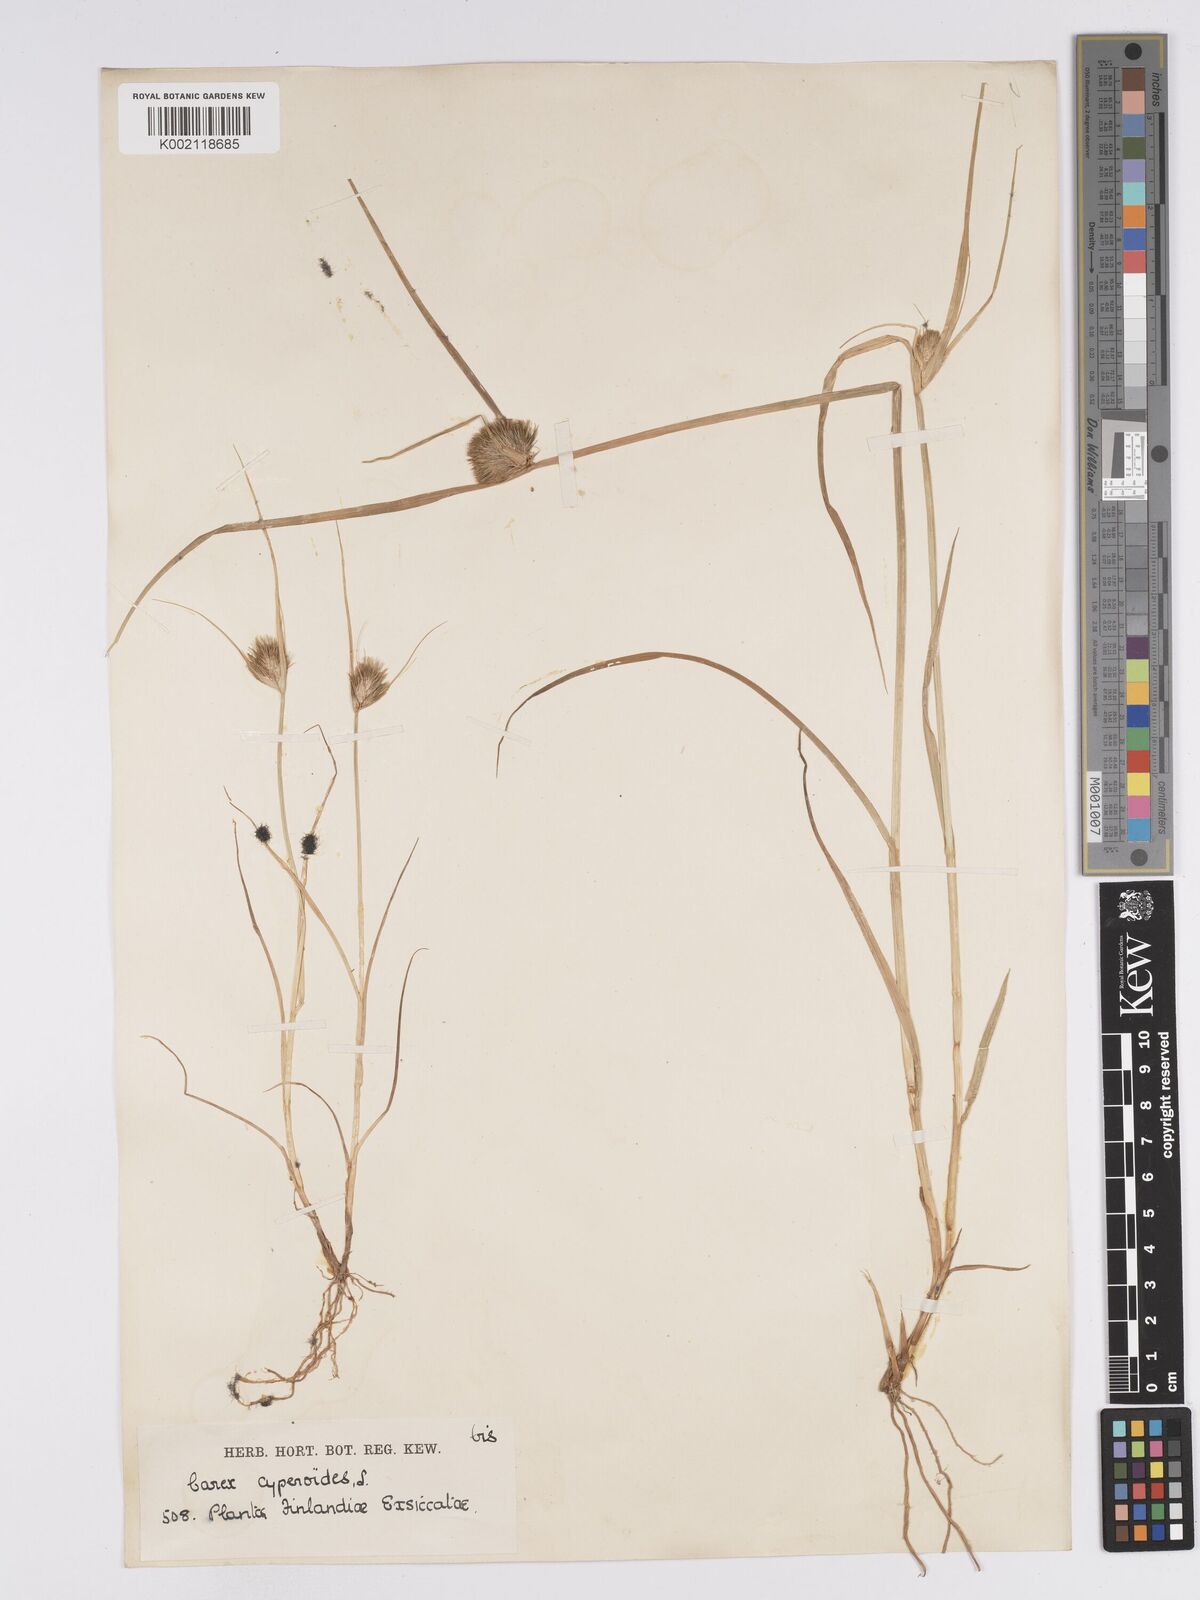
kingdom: Plantae
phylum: Tracheophyta
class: Liliopsida
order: Poales
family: Cyperaceae
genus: Carex
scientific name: Carex bohemica
